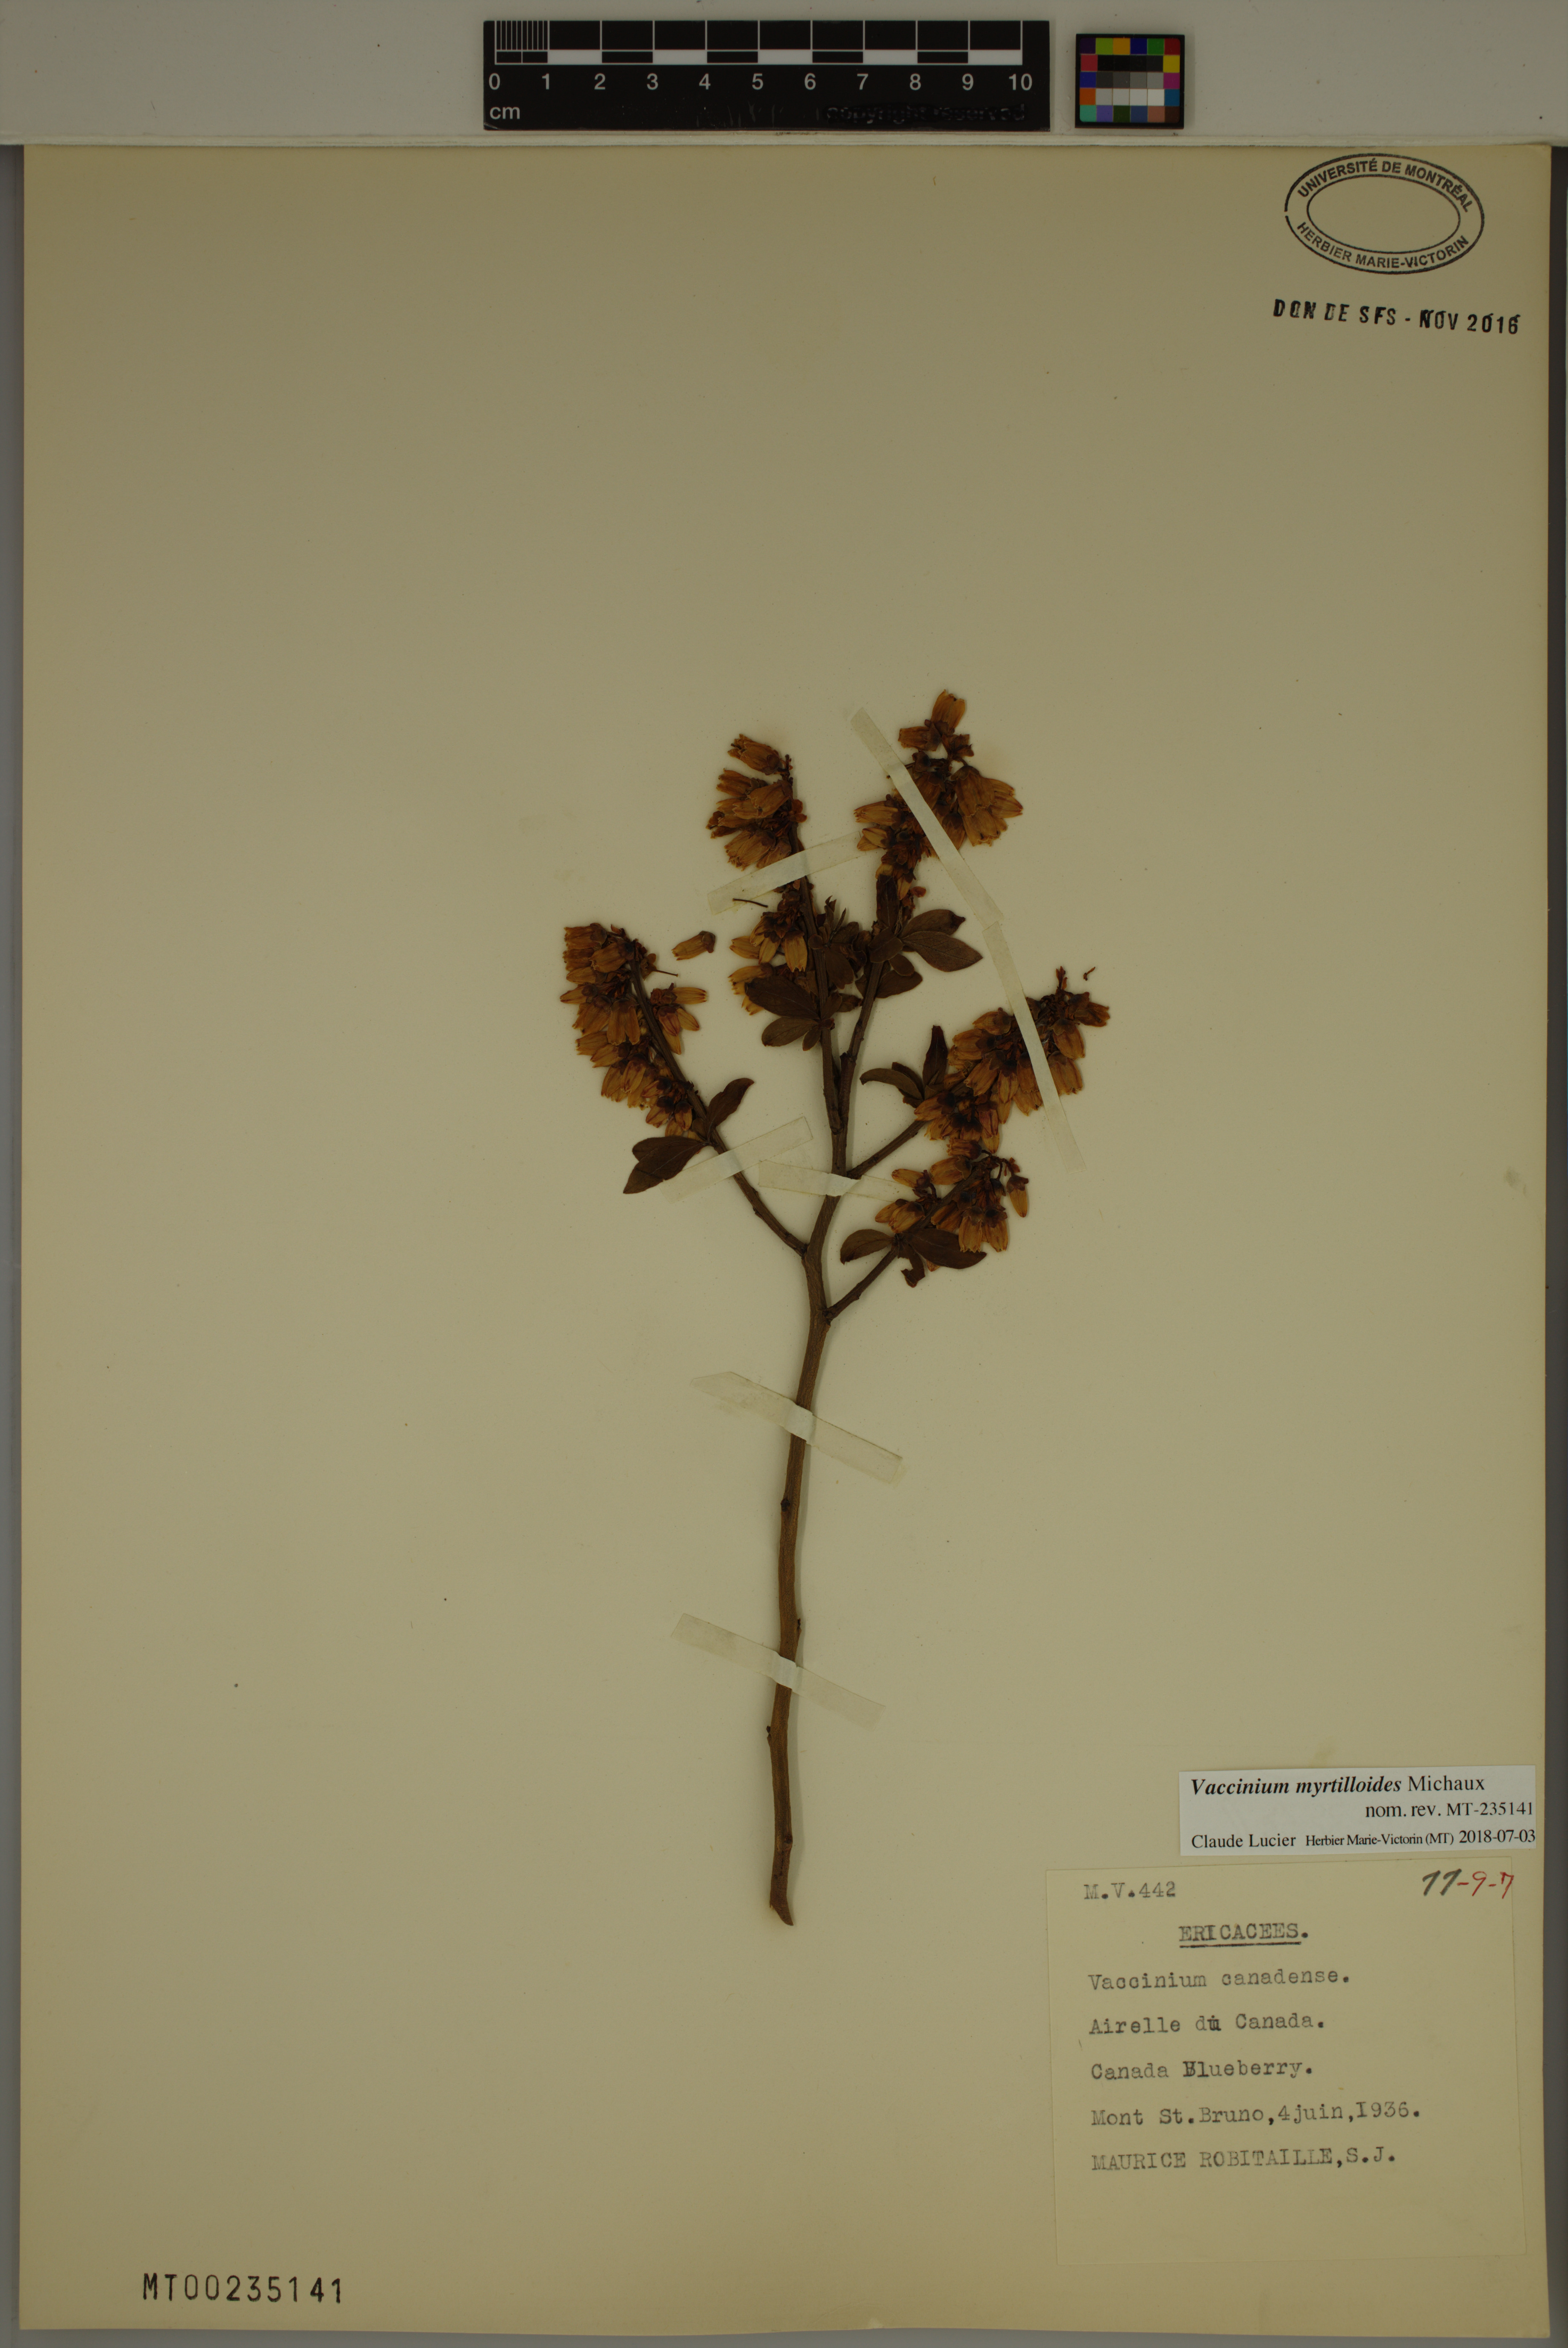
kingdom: Plantae
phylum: Tracheophyta
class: Magnoliopsida
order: Ericales
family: Ericaceae
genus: Vaccinium
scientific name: Vaccinium myrtilloides
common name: Canada blueberry
